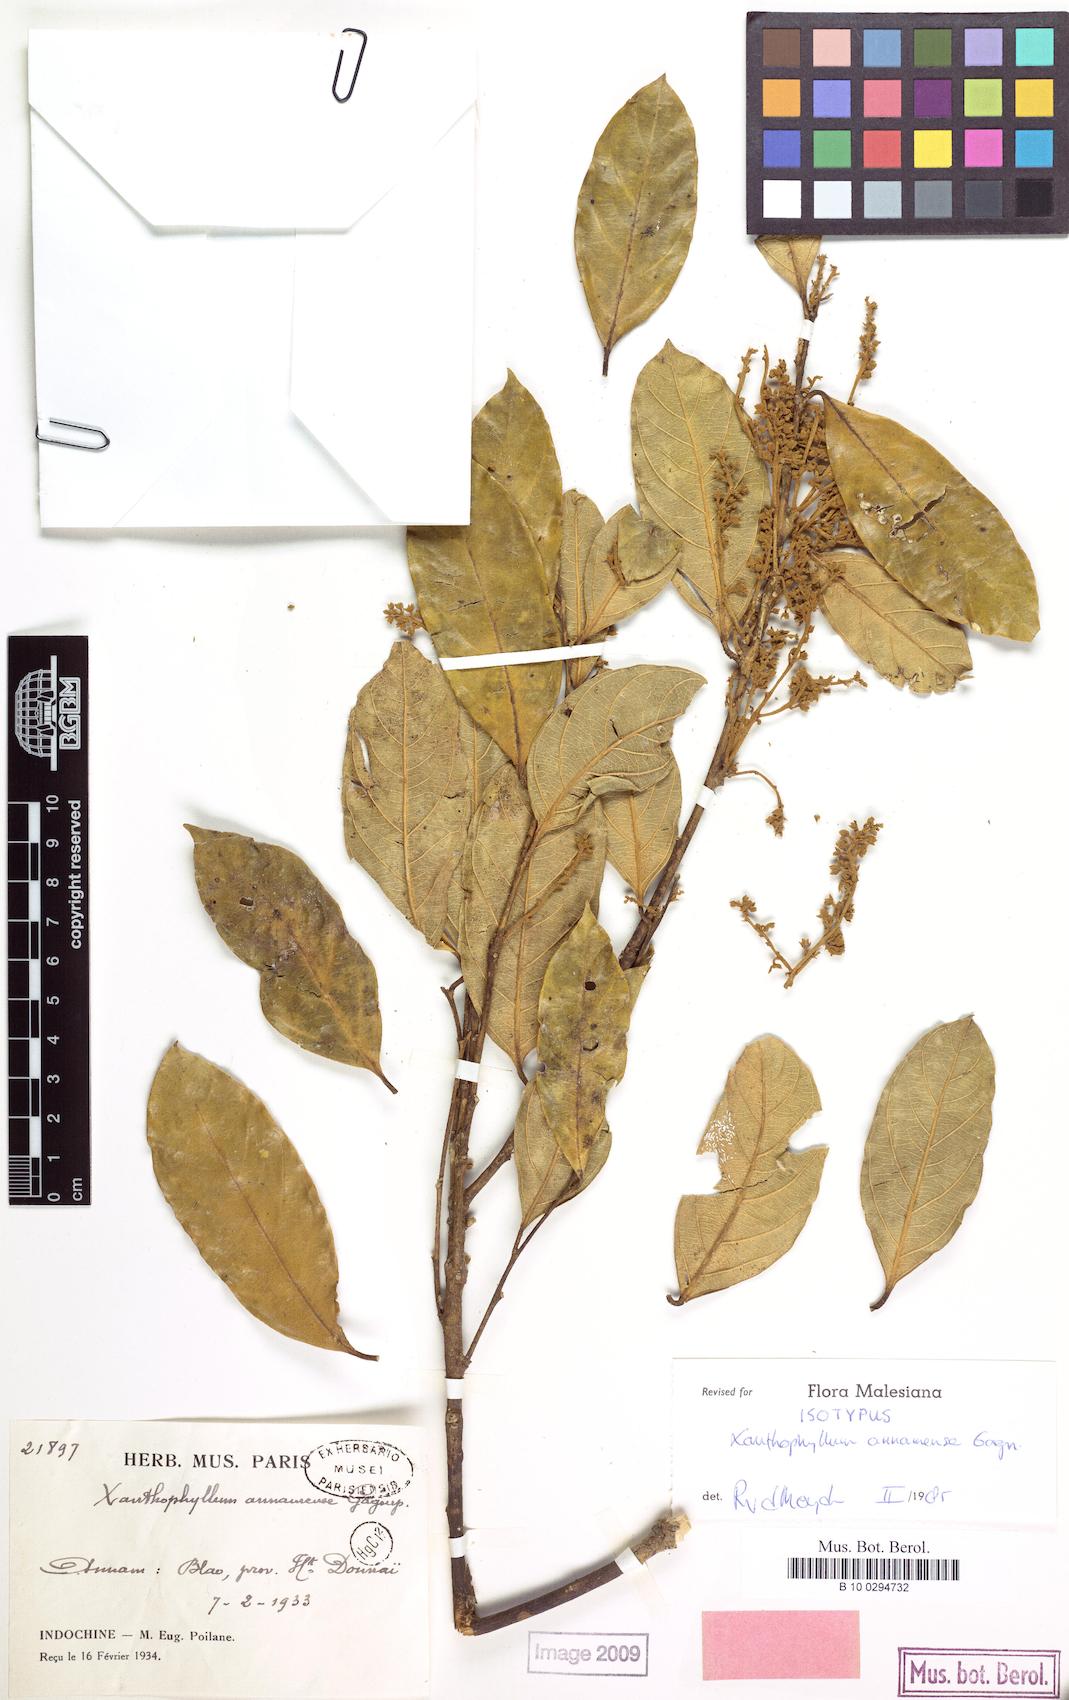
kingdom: Plantae
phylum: Tracheophyta
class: Magnoliopsida
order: Fabales
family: Polygalaceae
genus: Xanthophyllum
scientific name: Xanthophyllum annamense
